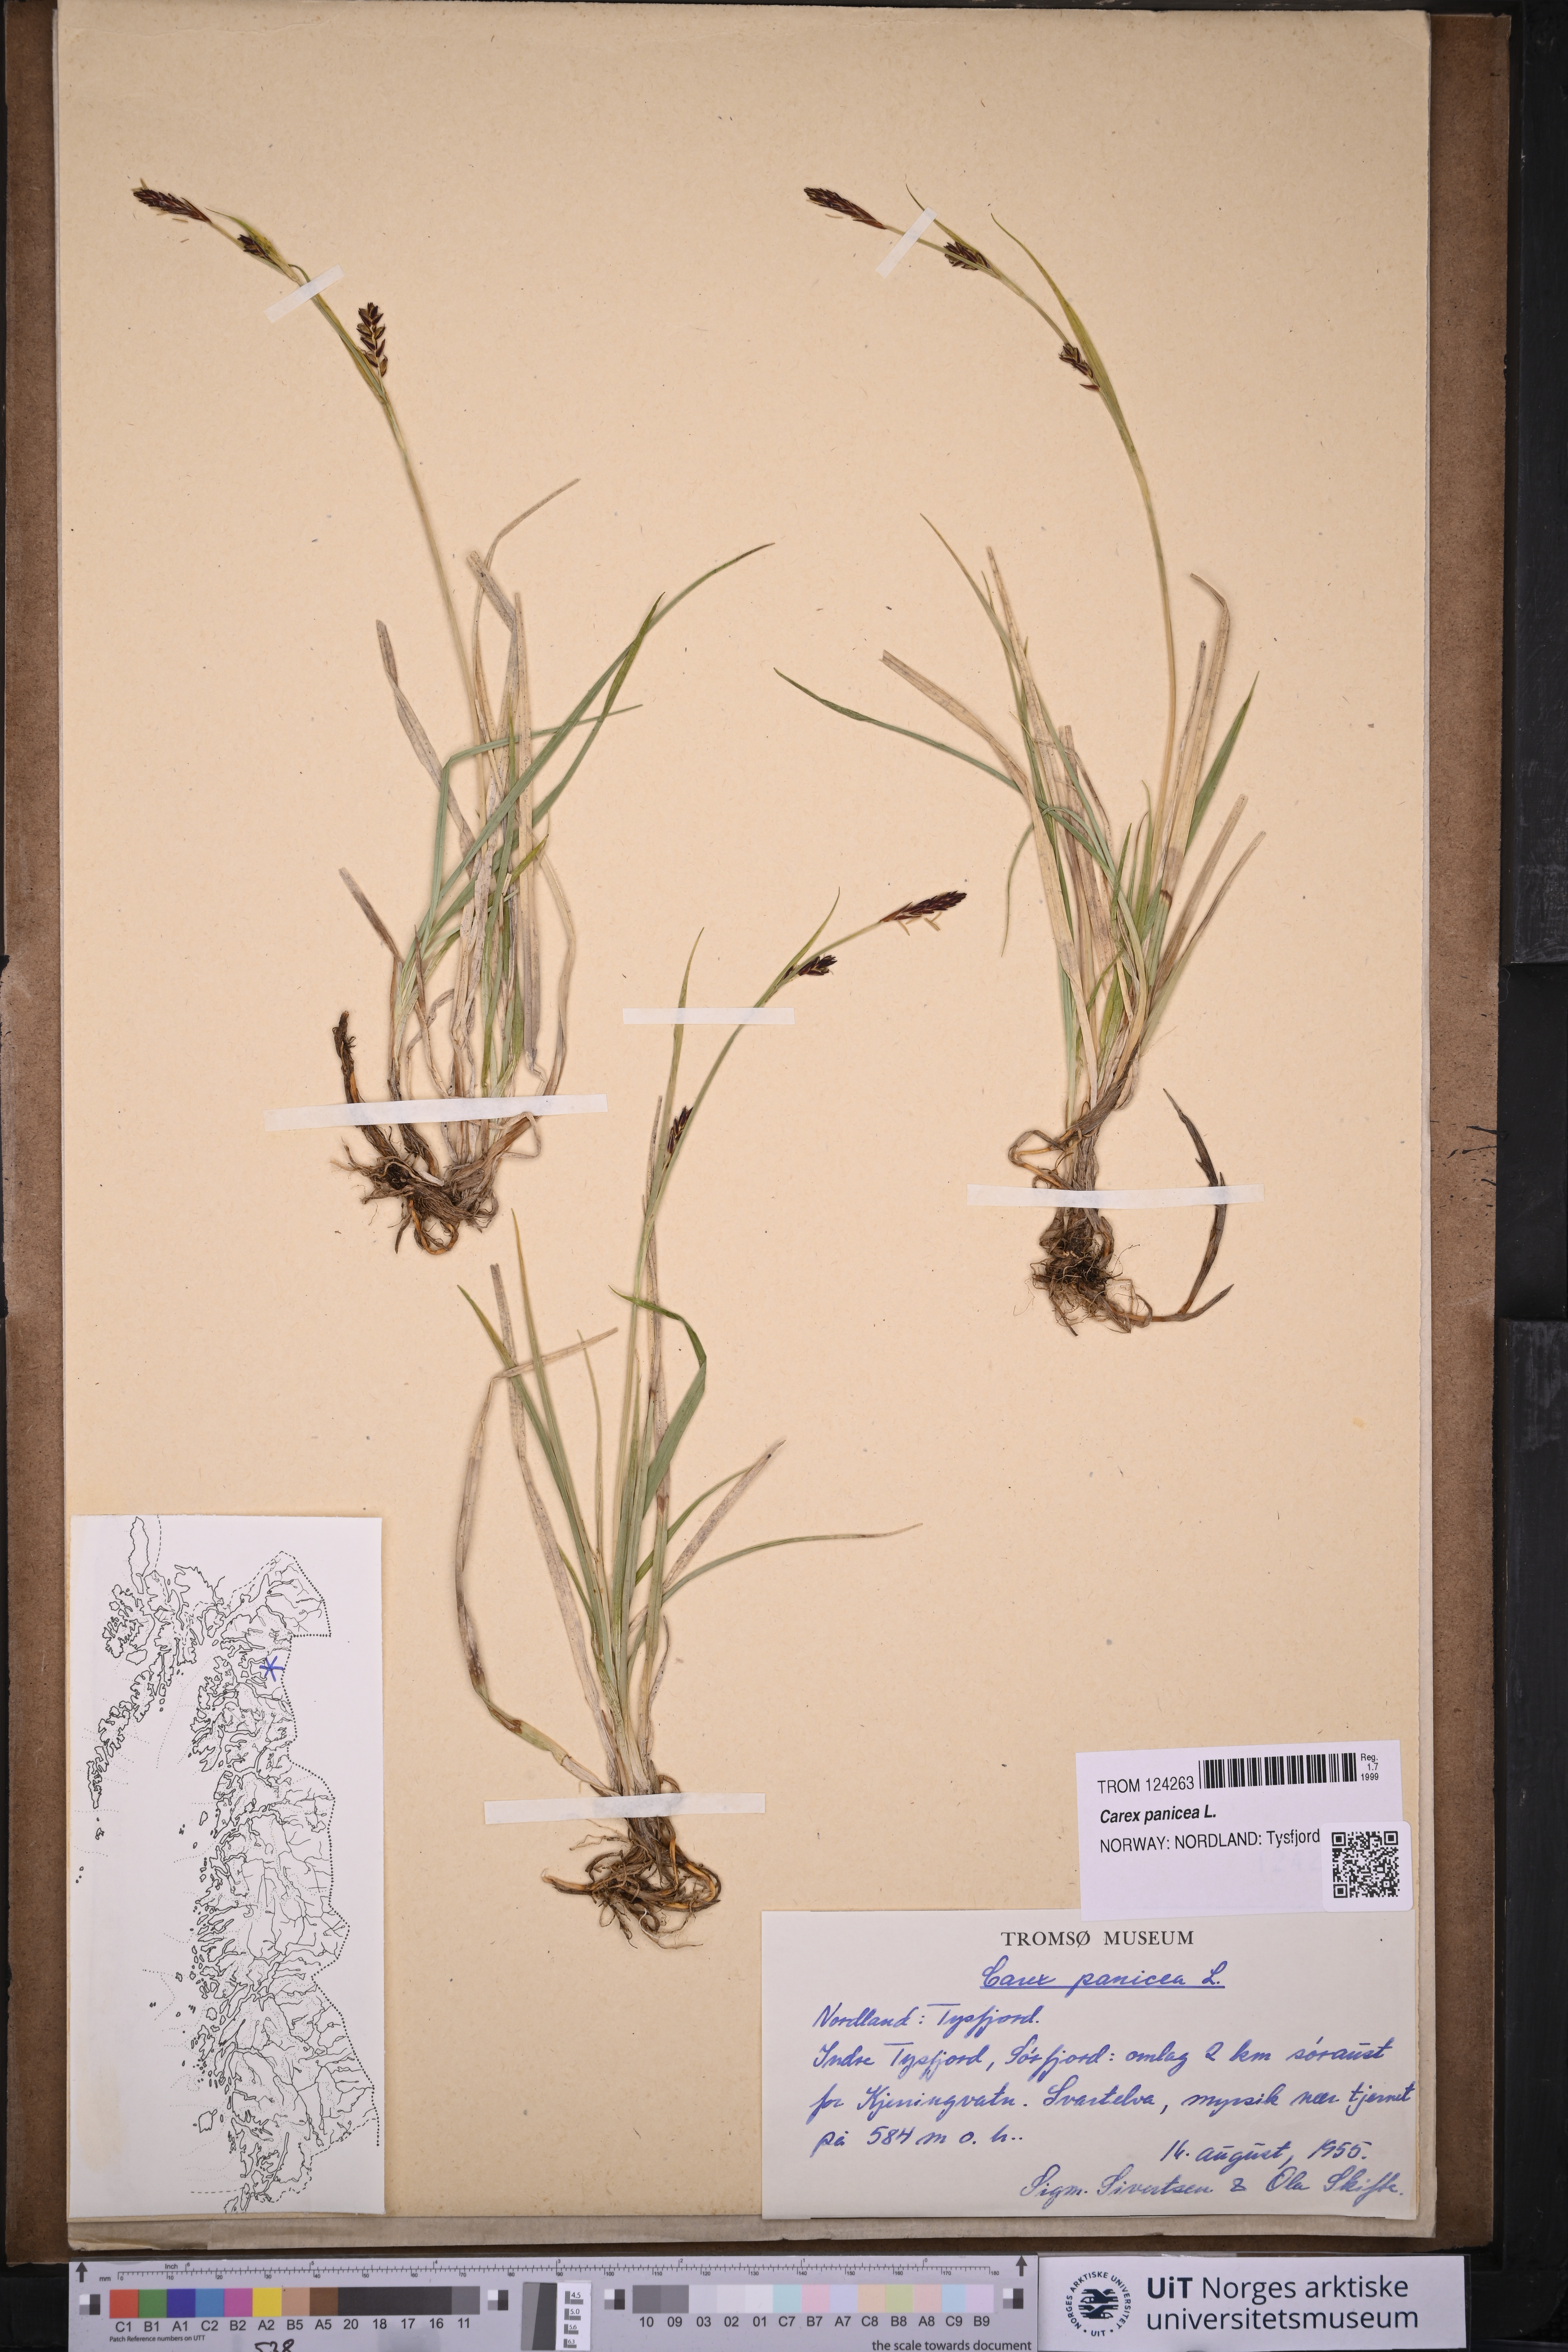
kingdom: Plantae
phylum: Tracheophyta
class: Liliopsida
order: Poales
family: Cyperaceae
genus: Carex
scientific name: Carex panicea
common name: Carnation sedge
